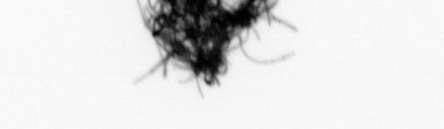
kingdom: Bacteria
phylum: Cyanobacteria
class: Cyanobacteriia
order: Cyanobacteriales
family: Microcoleaceae
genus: Trichodesmium
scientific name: Trichodesmium
